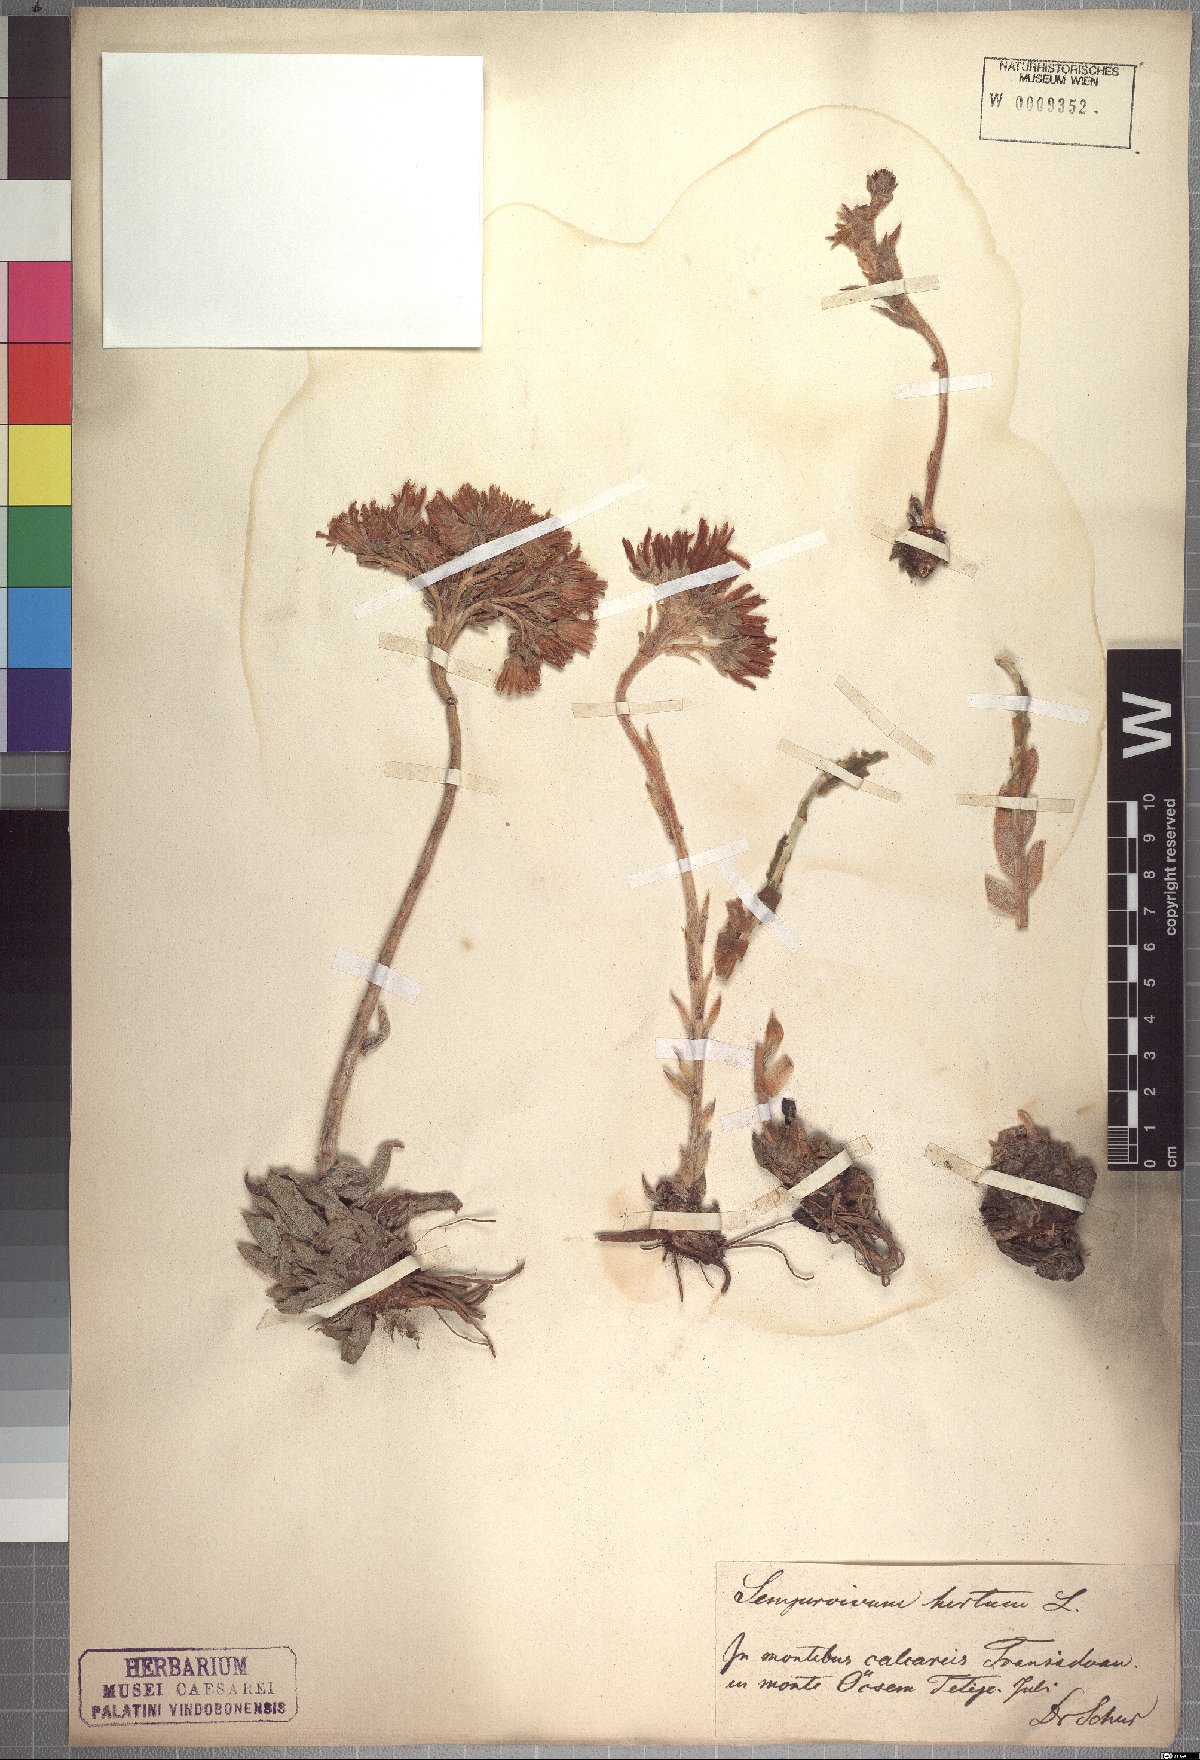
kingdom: Plantae
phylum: Tracheophyta
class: Magnoliopsida
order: Saxifragales
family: Crassulaceae
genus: Sempervivum
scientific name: Sempervivum globiferum
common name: Rolling hen-and-chicks
